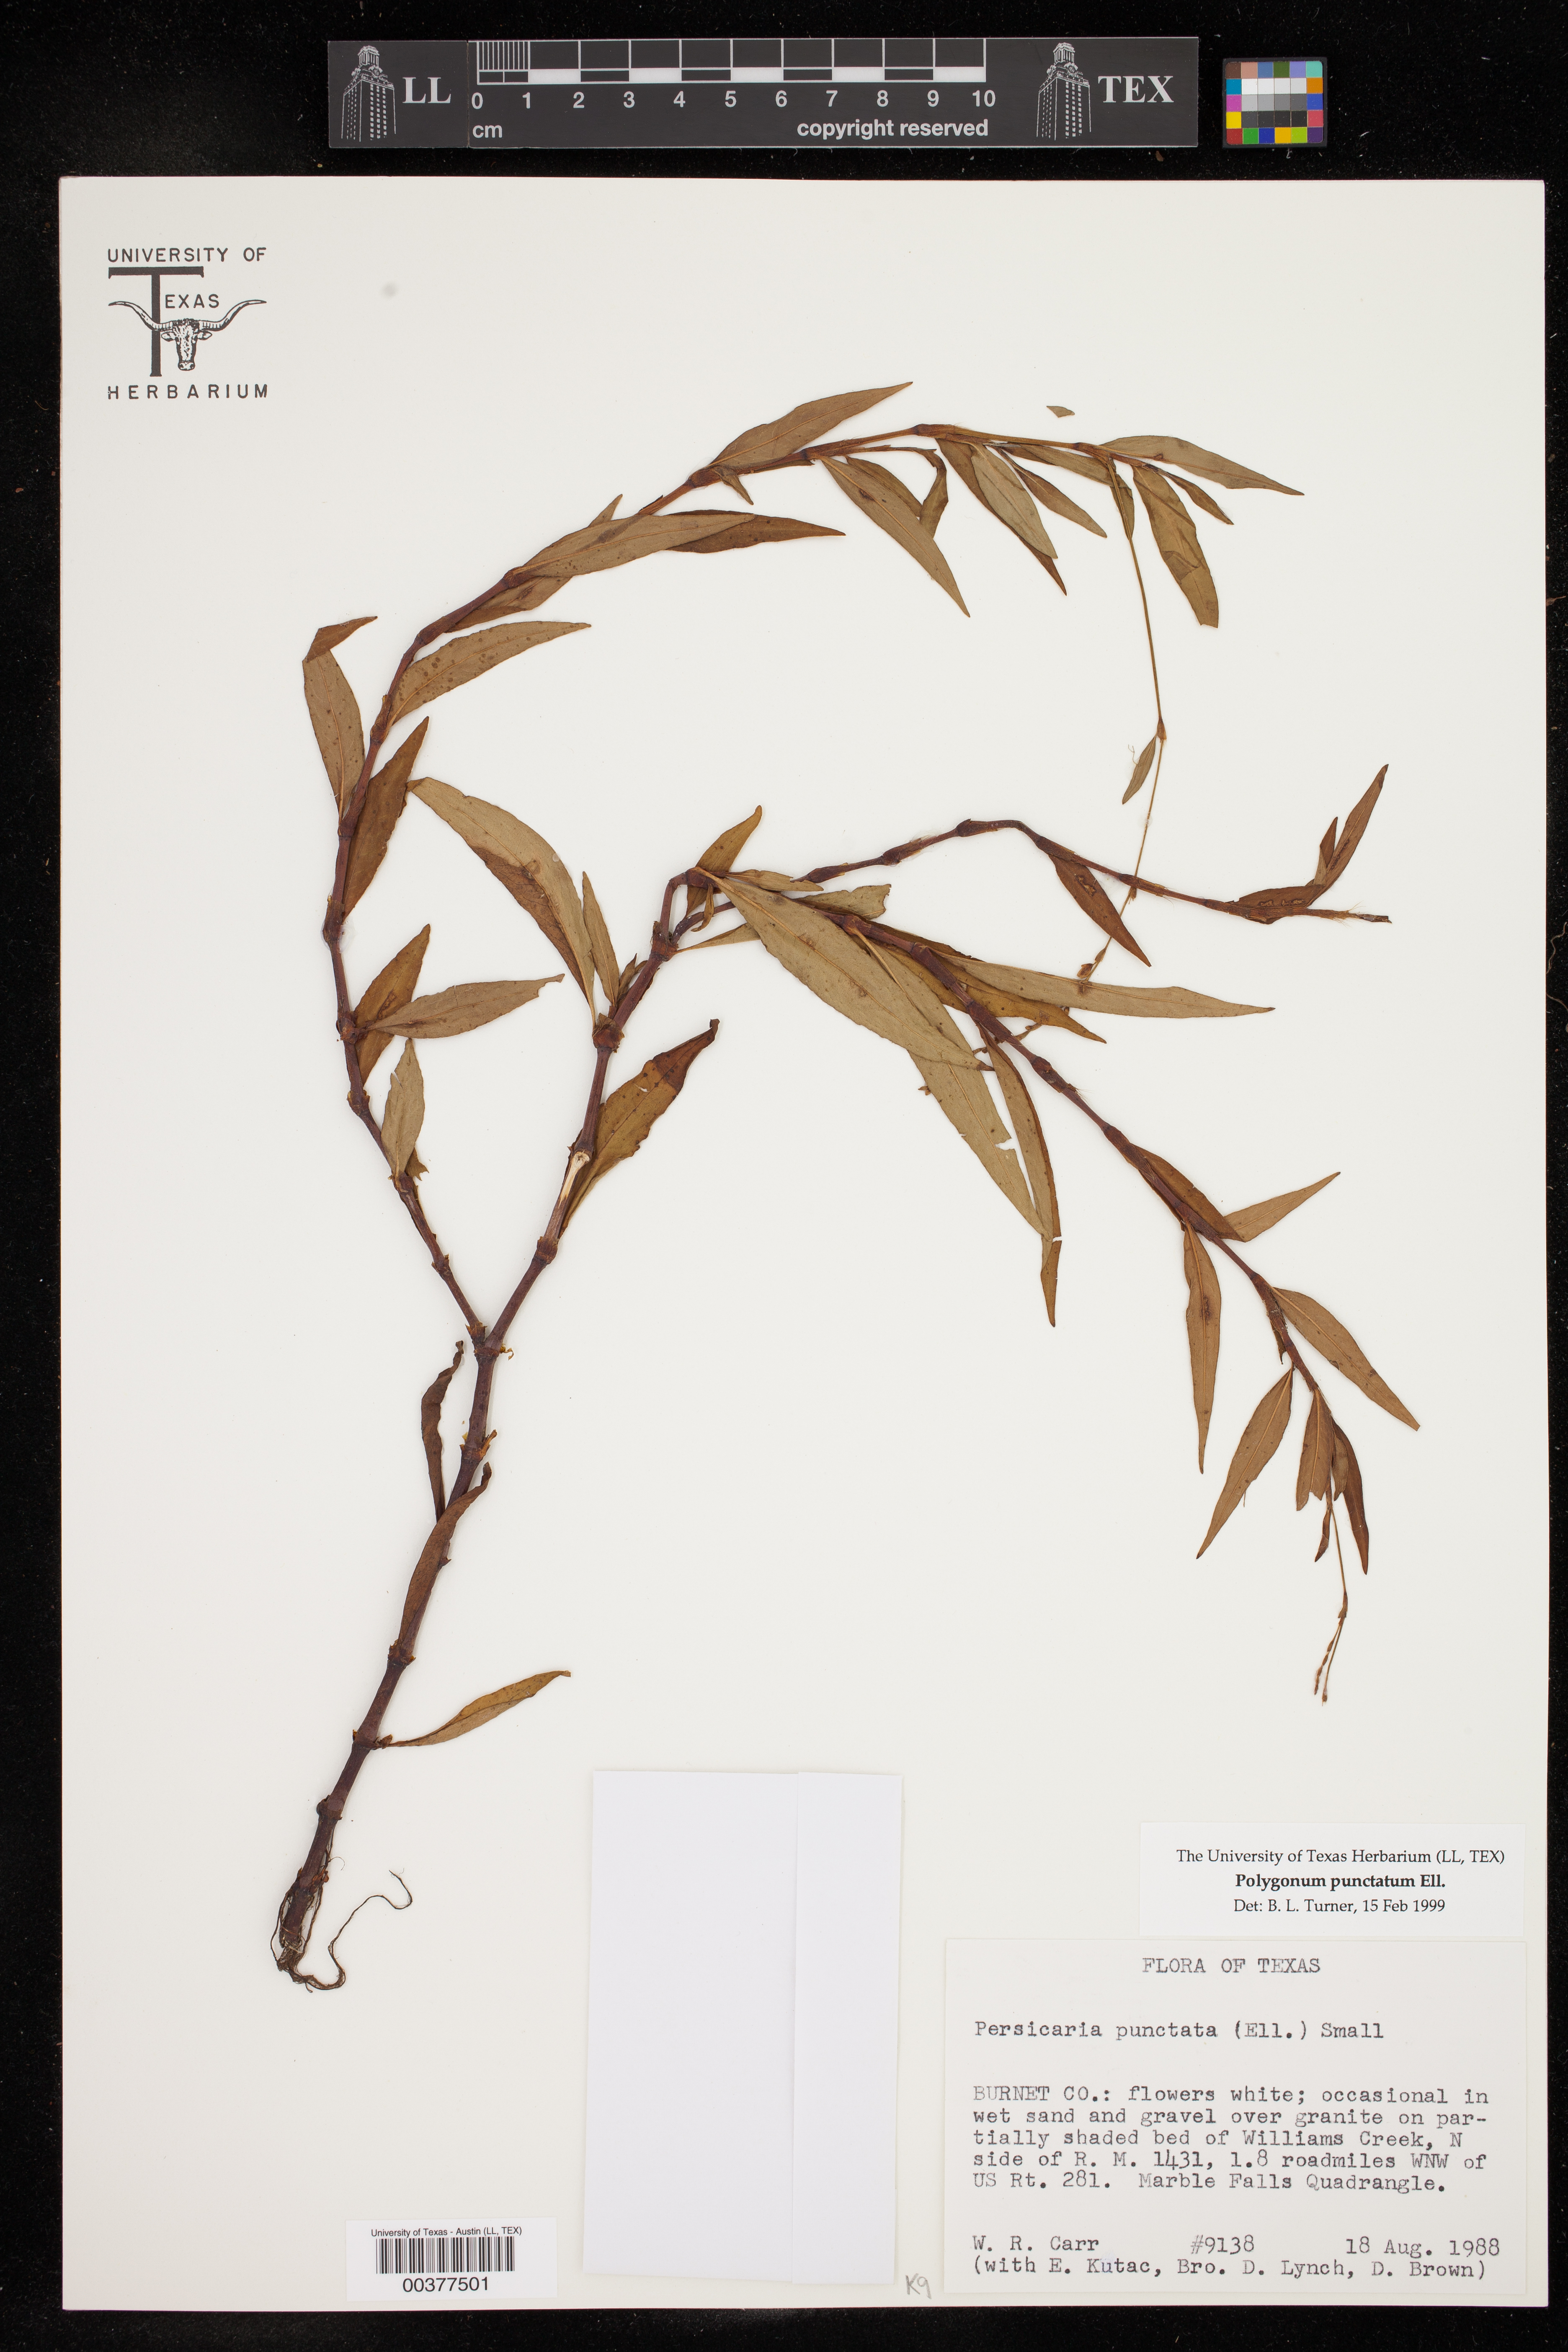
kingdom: Plantae
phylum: Tracheophyta
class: Magnoliopsida
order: Caryophyllales
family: Polygonaceae
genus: Persicaria
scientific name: Persicaria punctata
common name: Dotted smartweed
